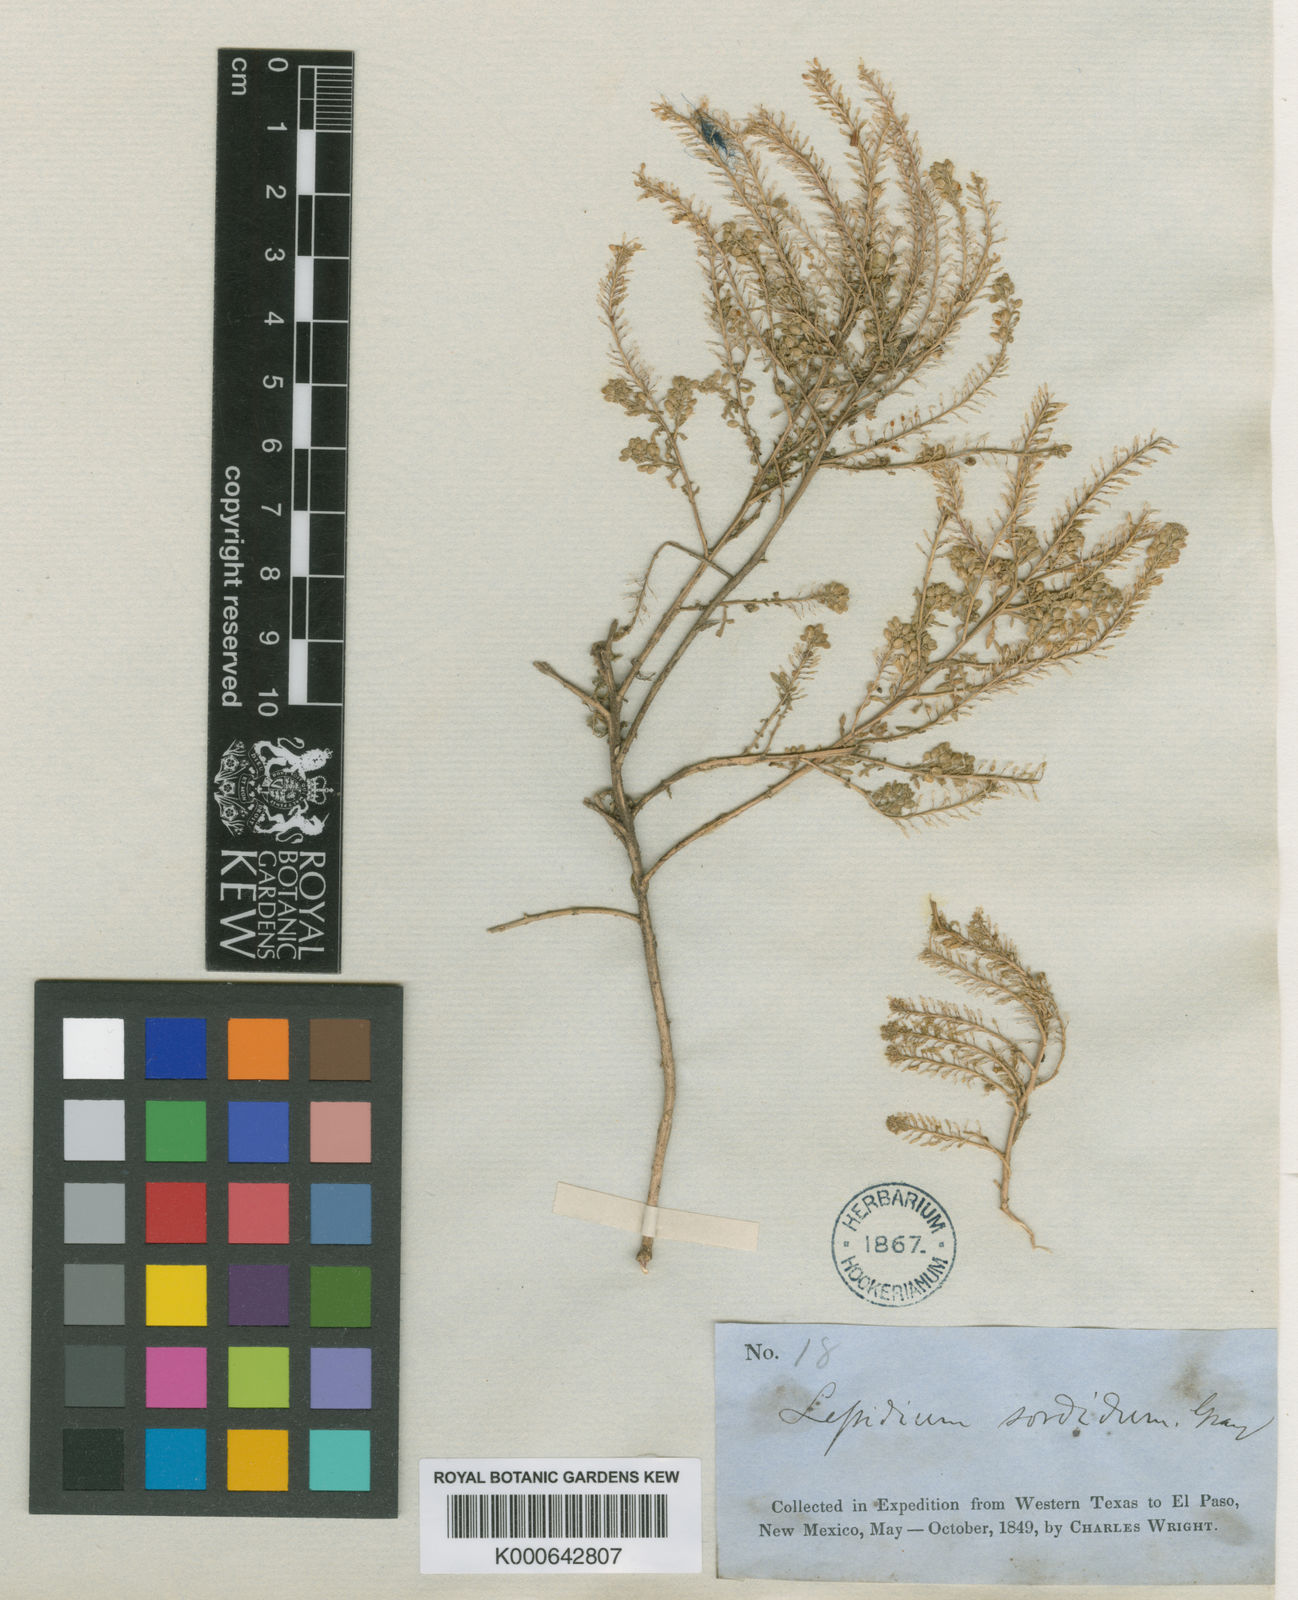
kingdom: Plantae
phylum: Tracheophyta
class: Magnoliopsida
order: Brassicales
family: Brassicaceae
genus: Lepidium
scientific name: Lepidium sordidum
